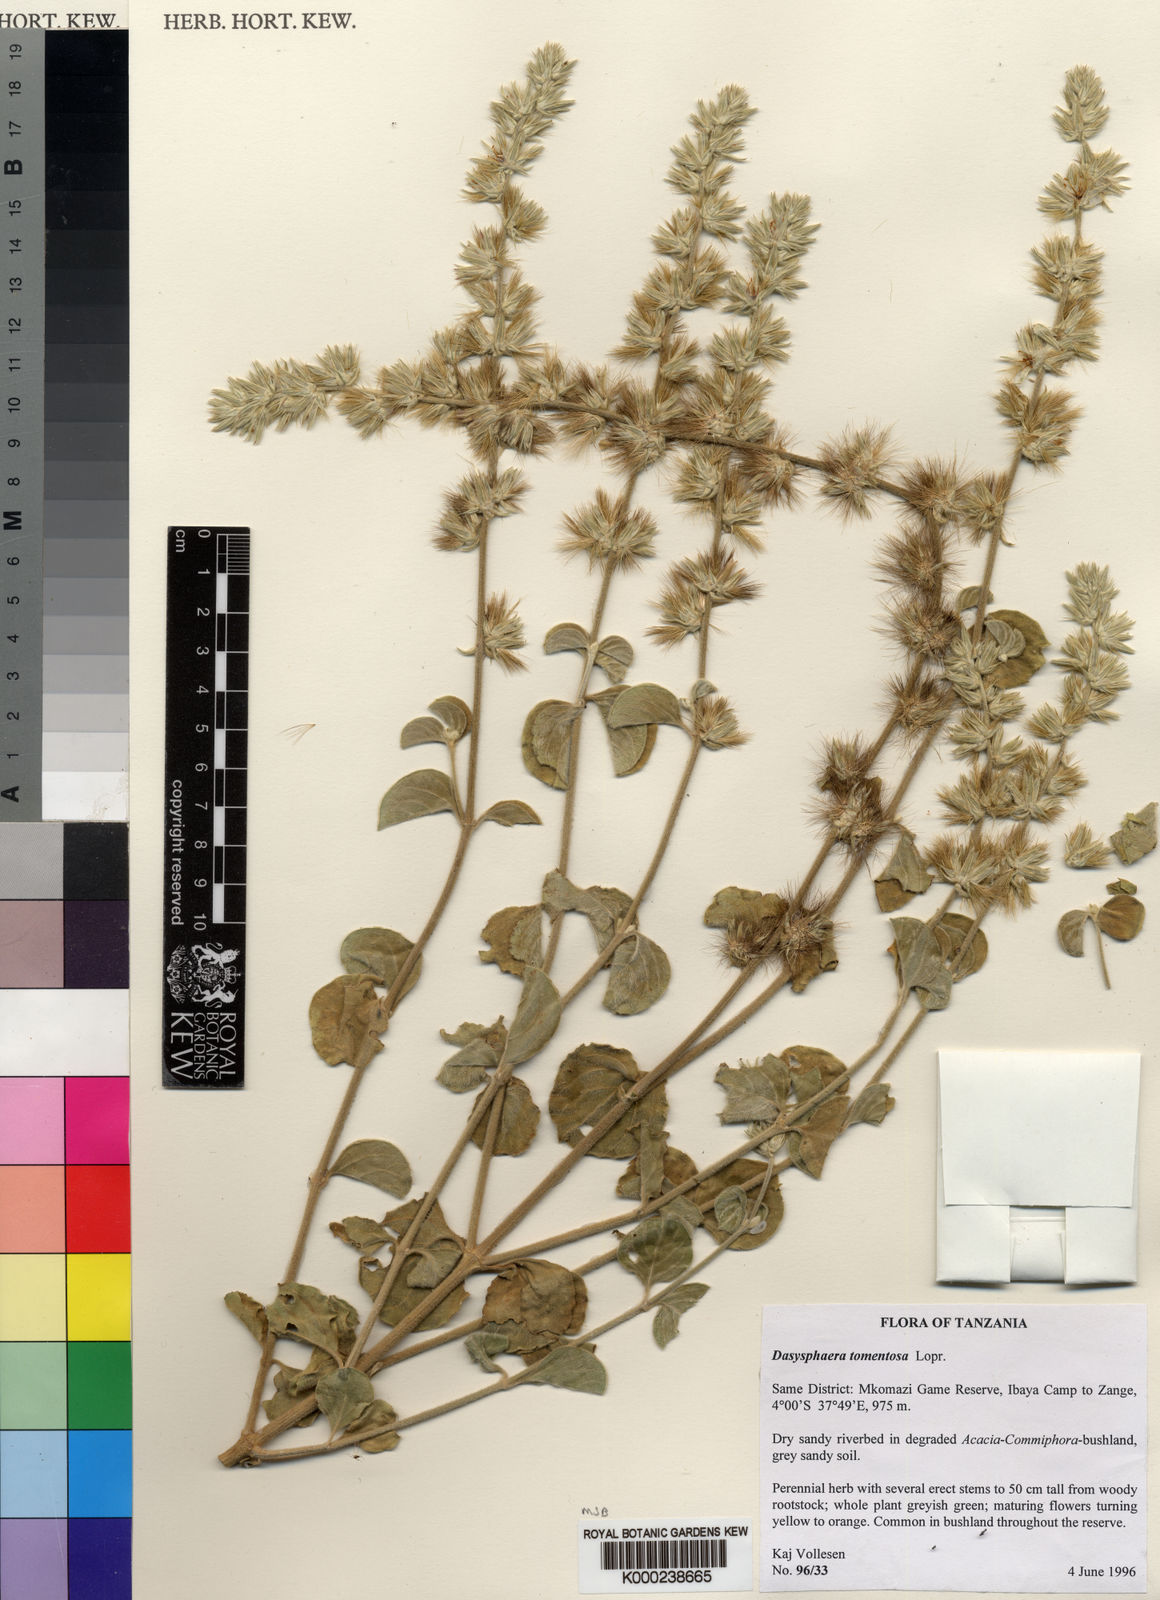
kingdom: Plantae
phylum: Tracheophyta
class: Magnoliopsida
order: Caryophyllales
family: Amaranthaceae
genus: Dasysphaera
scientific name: Dasysphaera tomentosa
